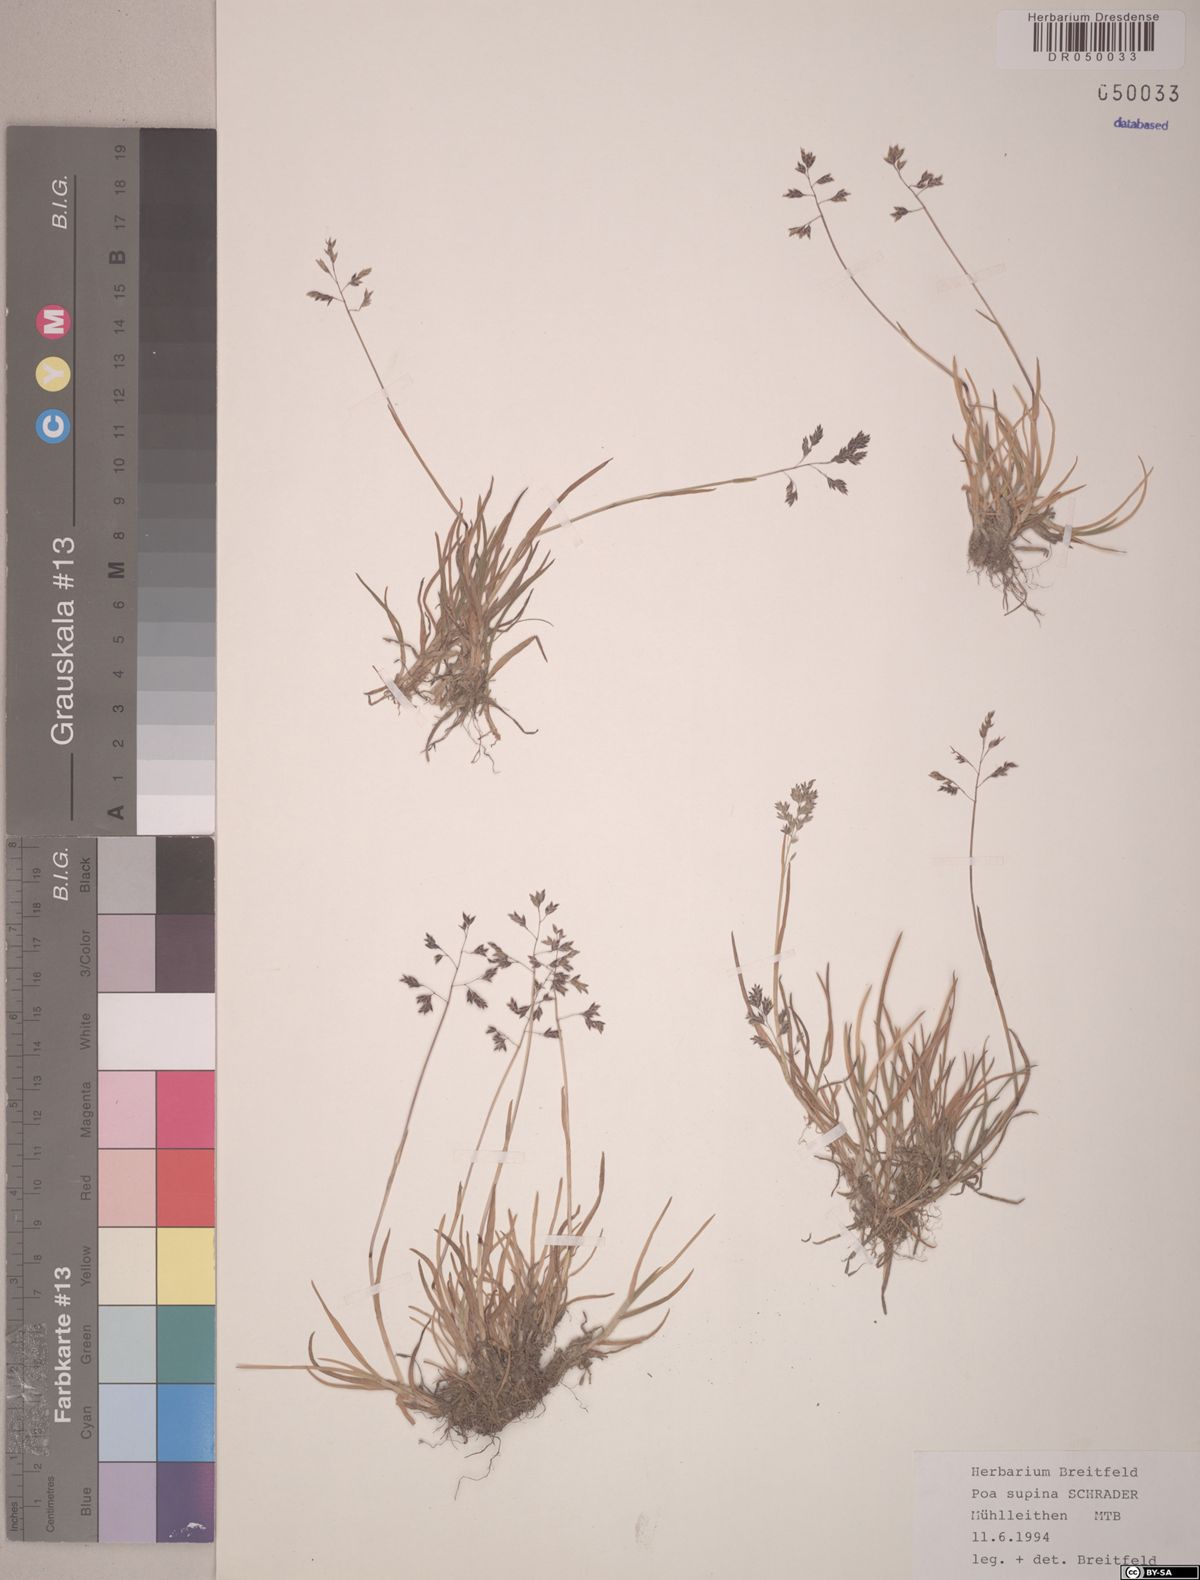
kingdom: Plantae
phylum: Tracheophyta
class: Liliopsida
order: Poales
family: Poaceae
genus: Poa
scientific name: Poa supina
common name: Supina bluegrass
